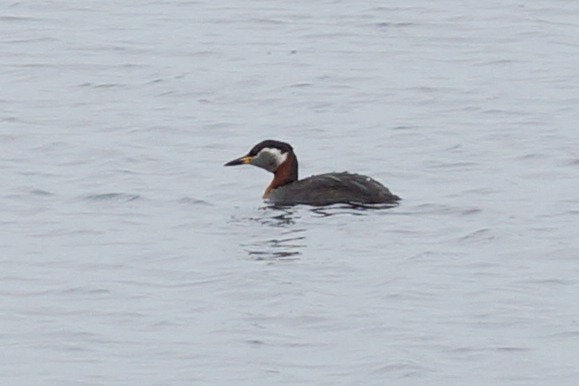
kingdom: Animalia
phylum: Chordata
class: Aves
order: Podicipediformes
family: Podicipedidae
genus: Podiceps
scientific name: Podiceps grisegena
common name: Gråstrubet lappedykker
